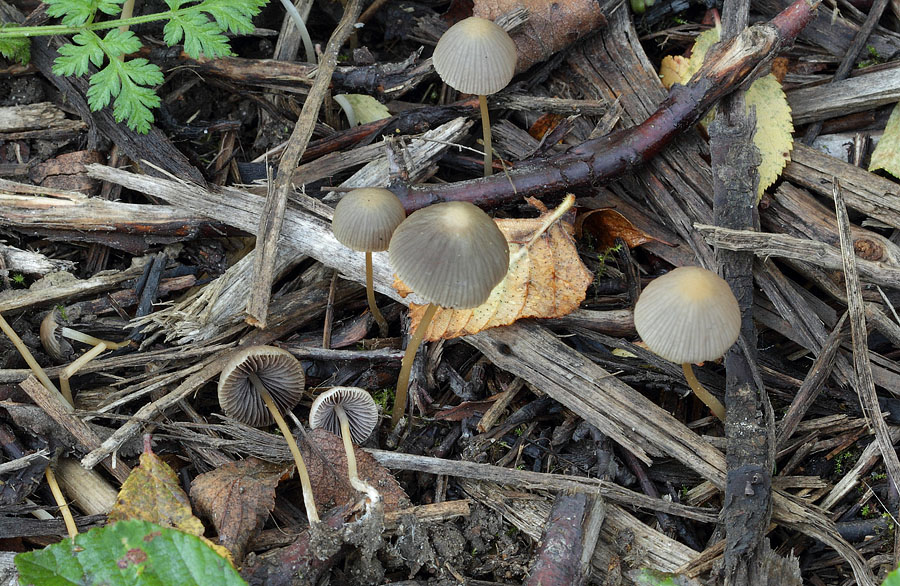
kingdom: Fungi
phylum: Basidiomycota
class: Agaricomycetes
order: Agaricales
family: Psathyrellaceae
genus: Psathyrella
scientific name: Psathyrella corrugis
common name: rødægget mørkhat
